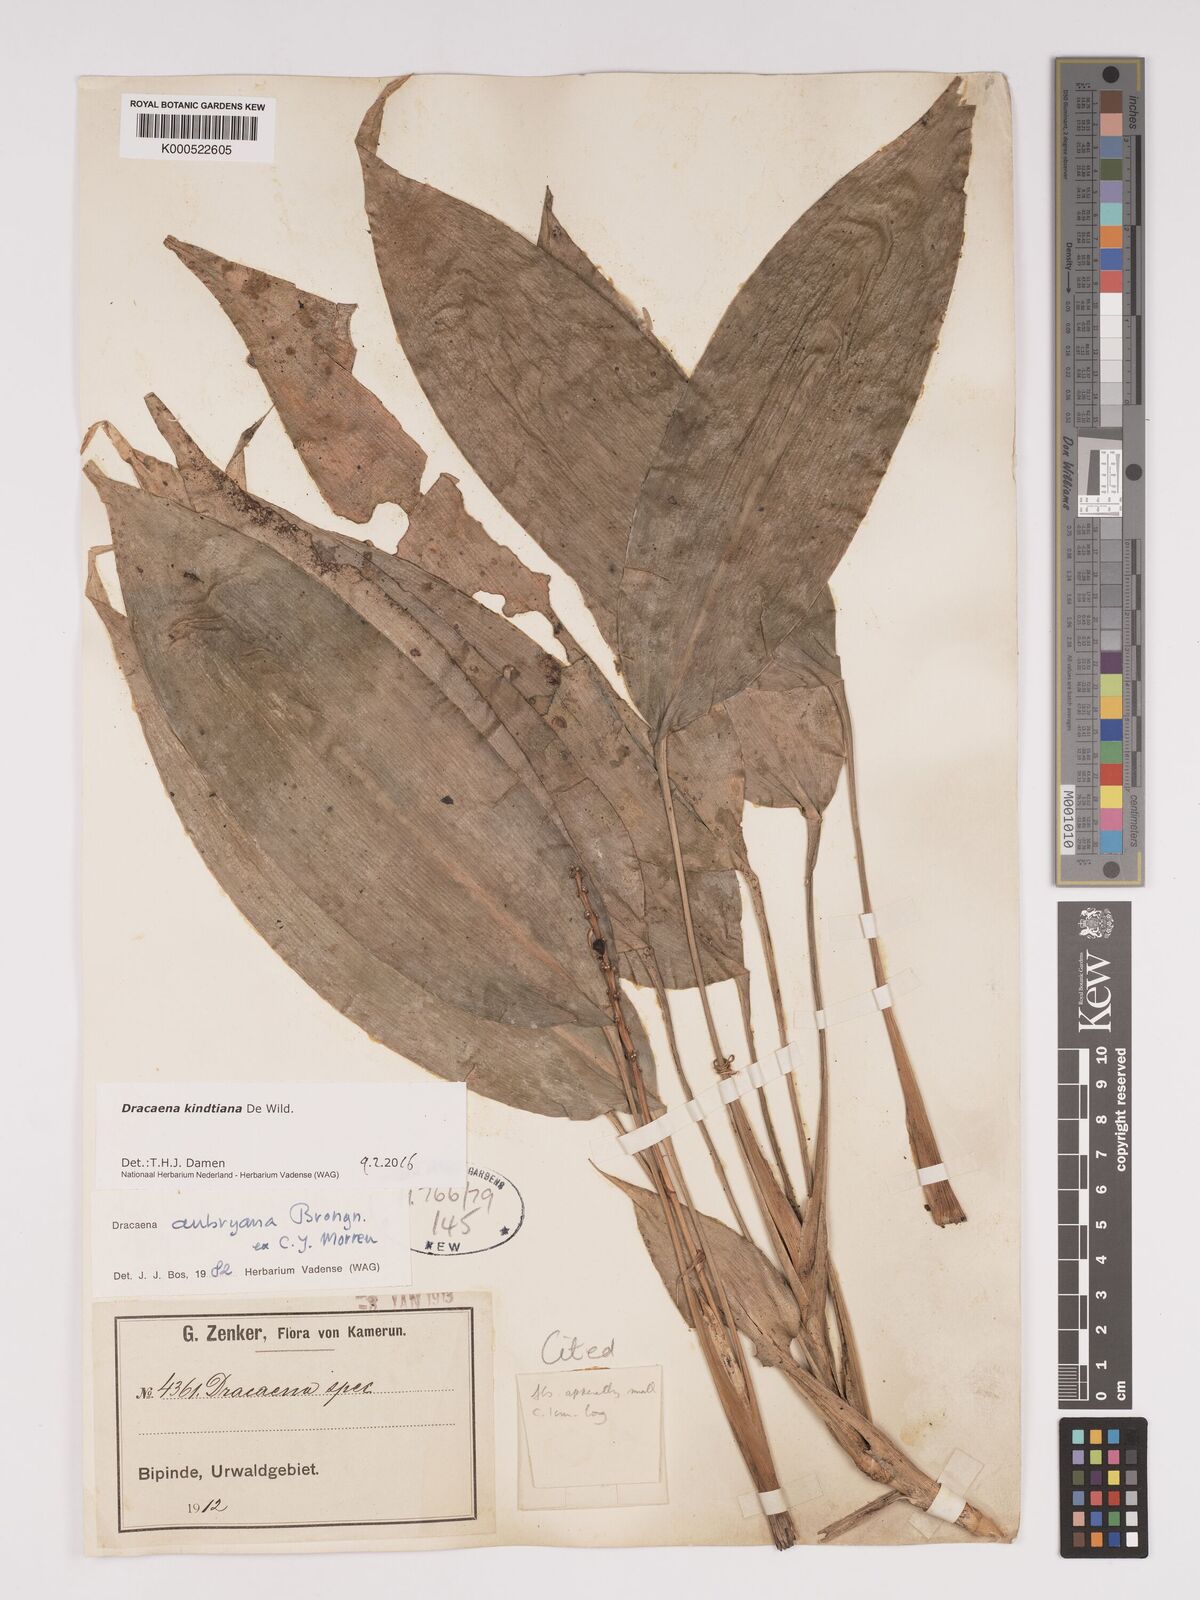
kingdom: Plantae
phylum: Tracheophyta
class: Liliopsida
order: Asparagales
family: Asparagaceae
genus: Dracaena
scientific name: Dracaena kindtiana
